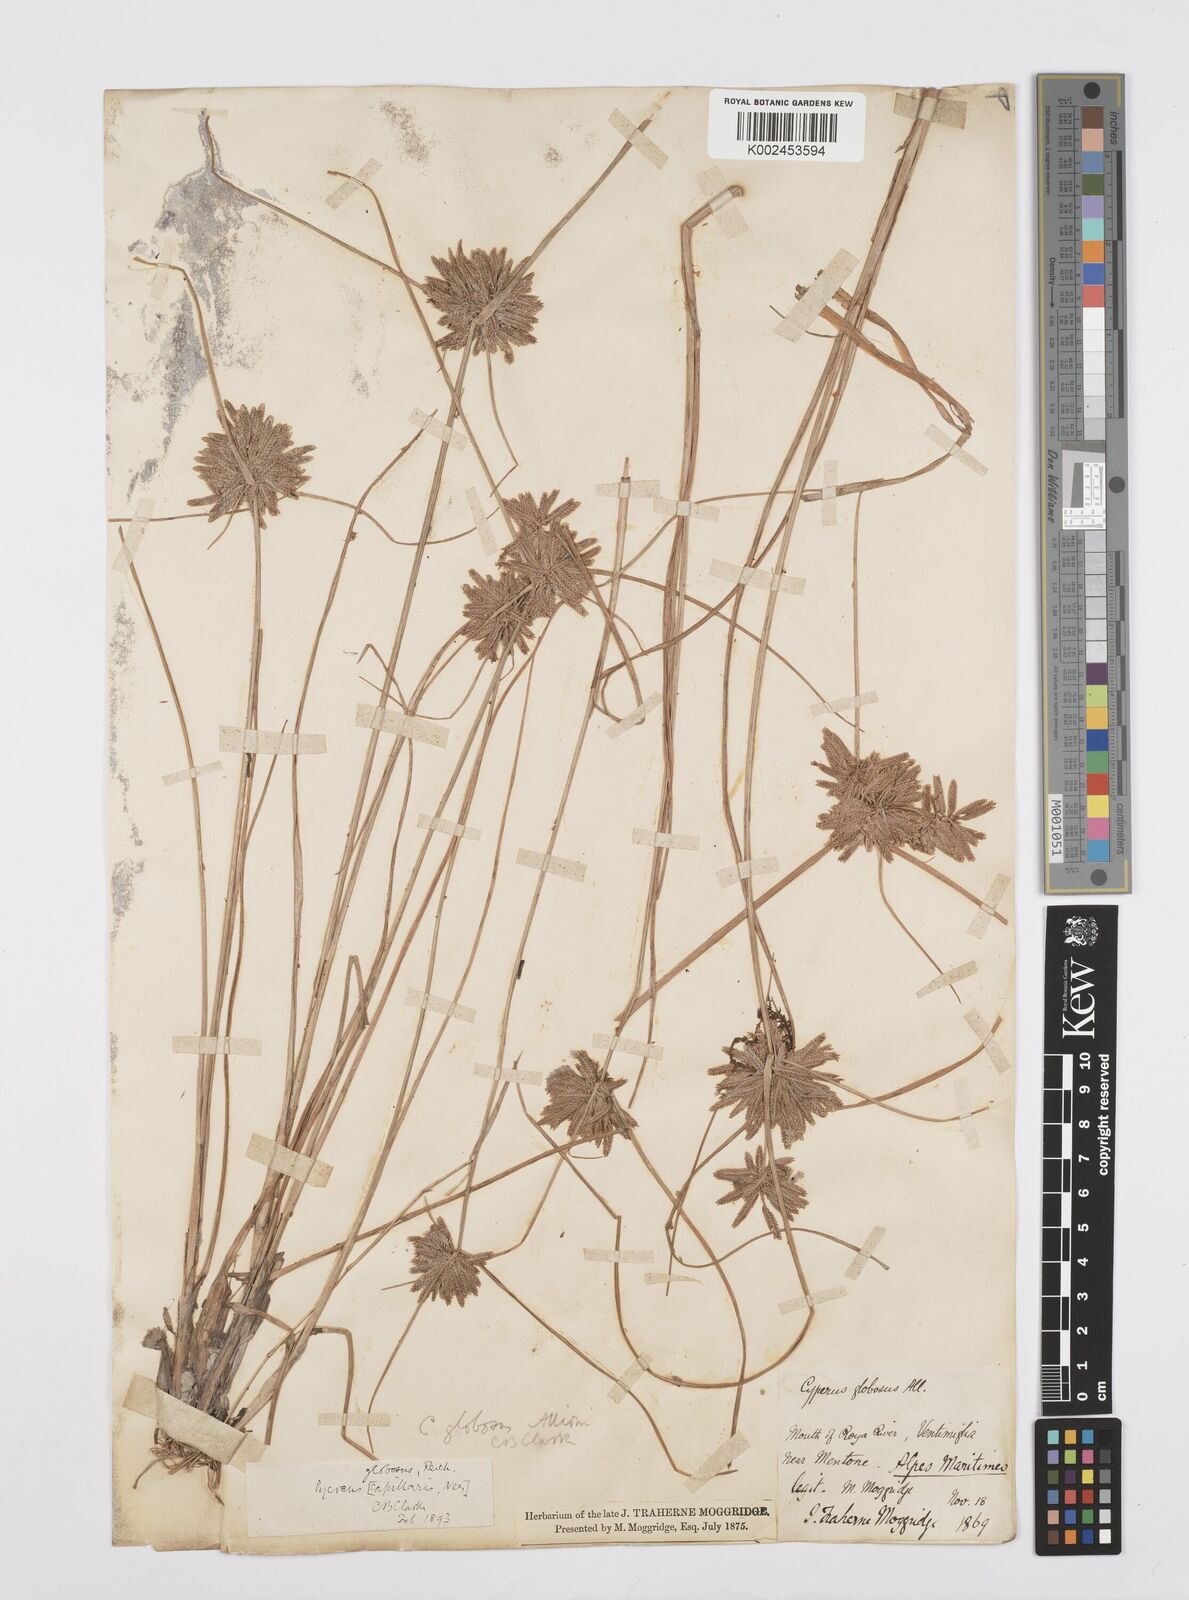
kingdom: Plantae
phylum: Tracheophyta
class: Liliopsida
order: Poales
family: Cyperaceae
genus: Cyperus
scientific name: Cyperus flavidus
